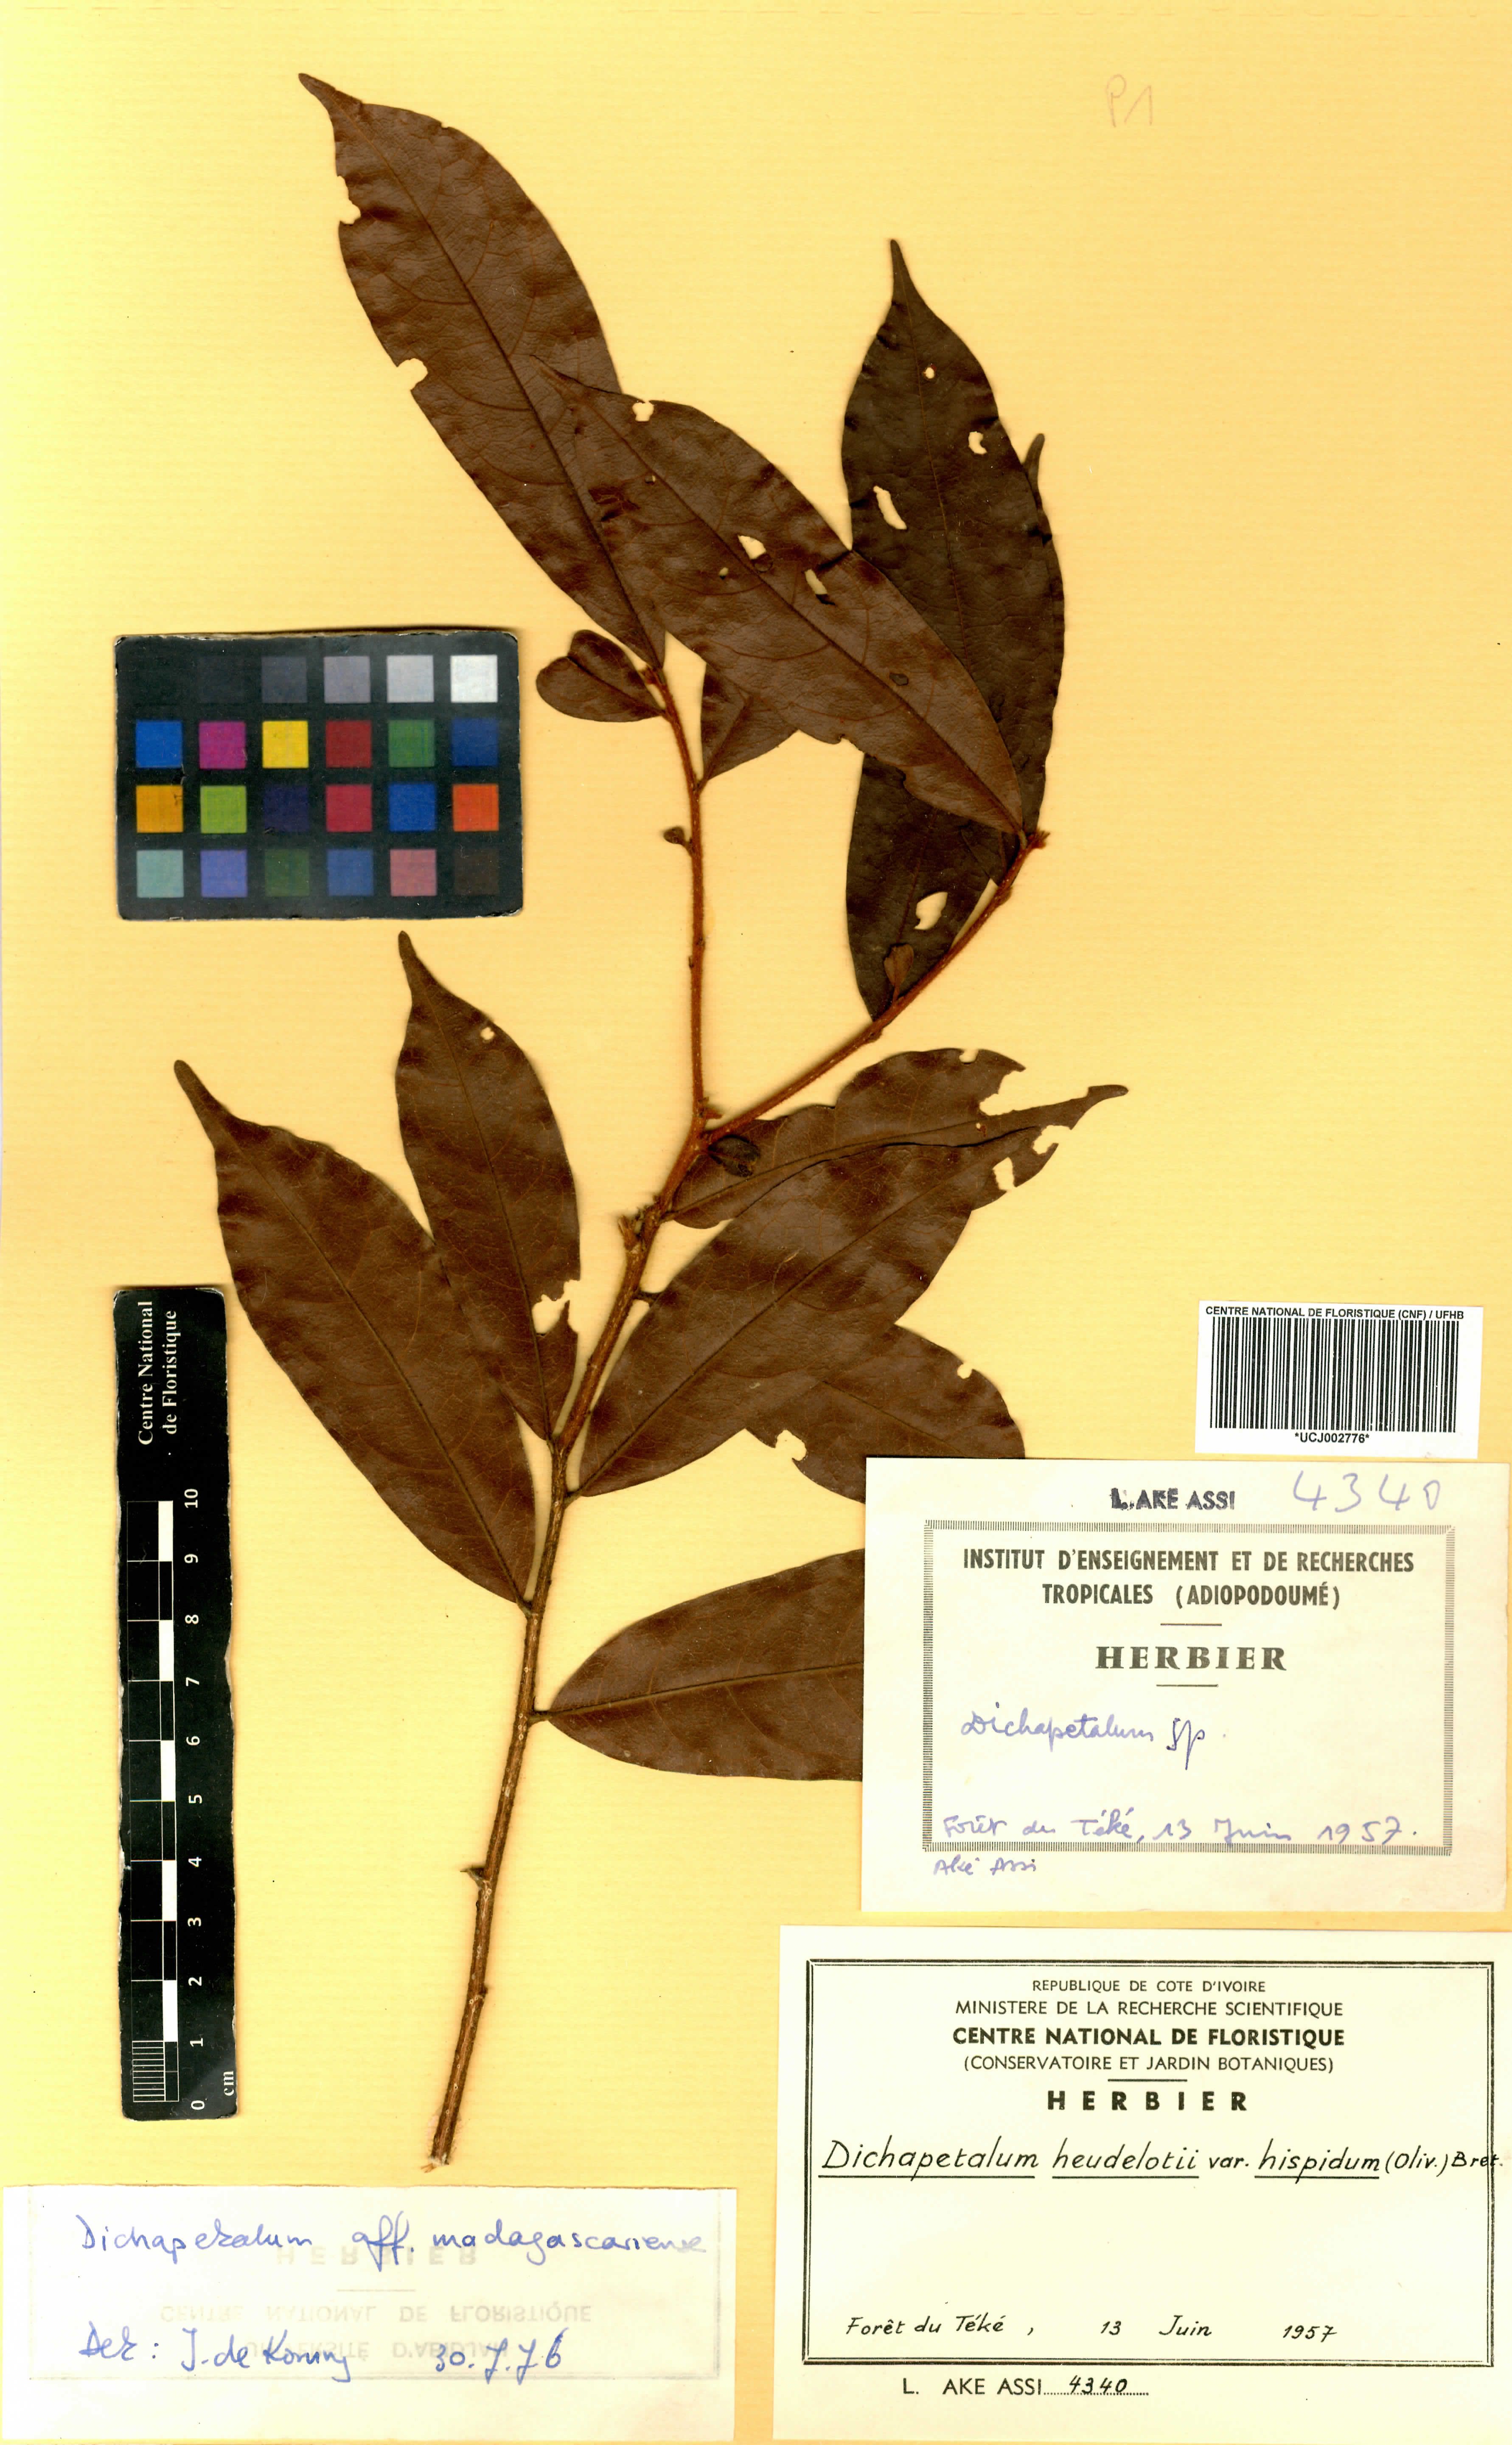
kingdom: Plantae
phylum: Tracheophyta
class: Magnoliopsida
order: Malpighiales
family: Dichapetalaceae
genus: Dichapetalum
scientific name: Dichapetalum heudelotii
